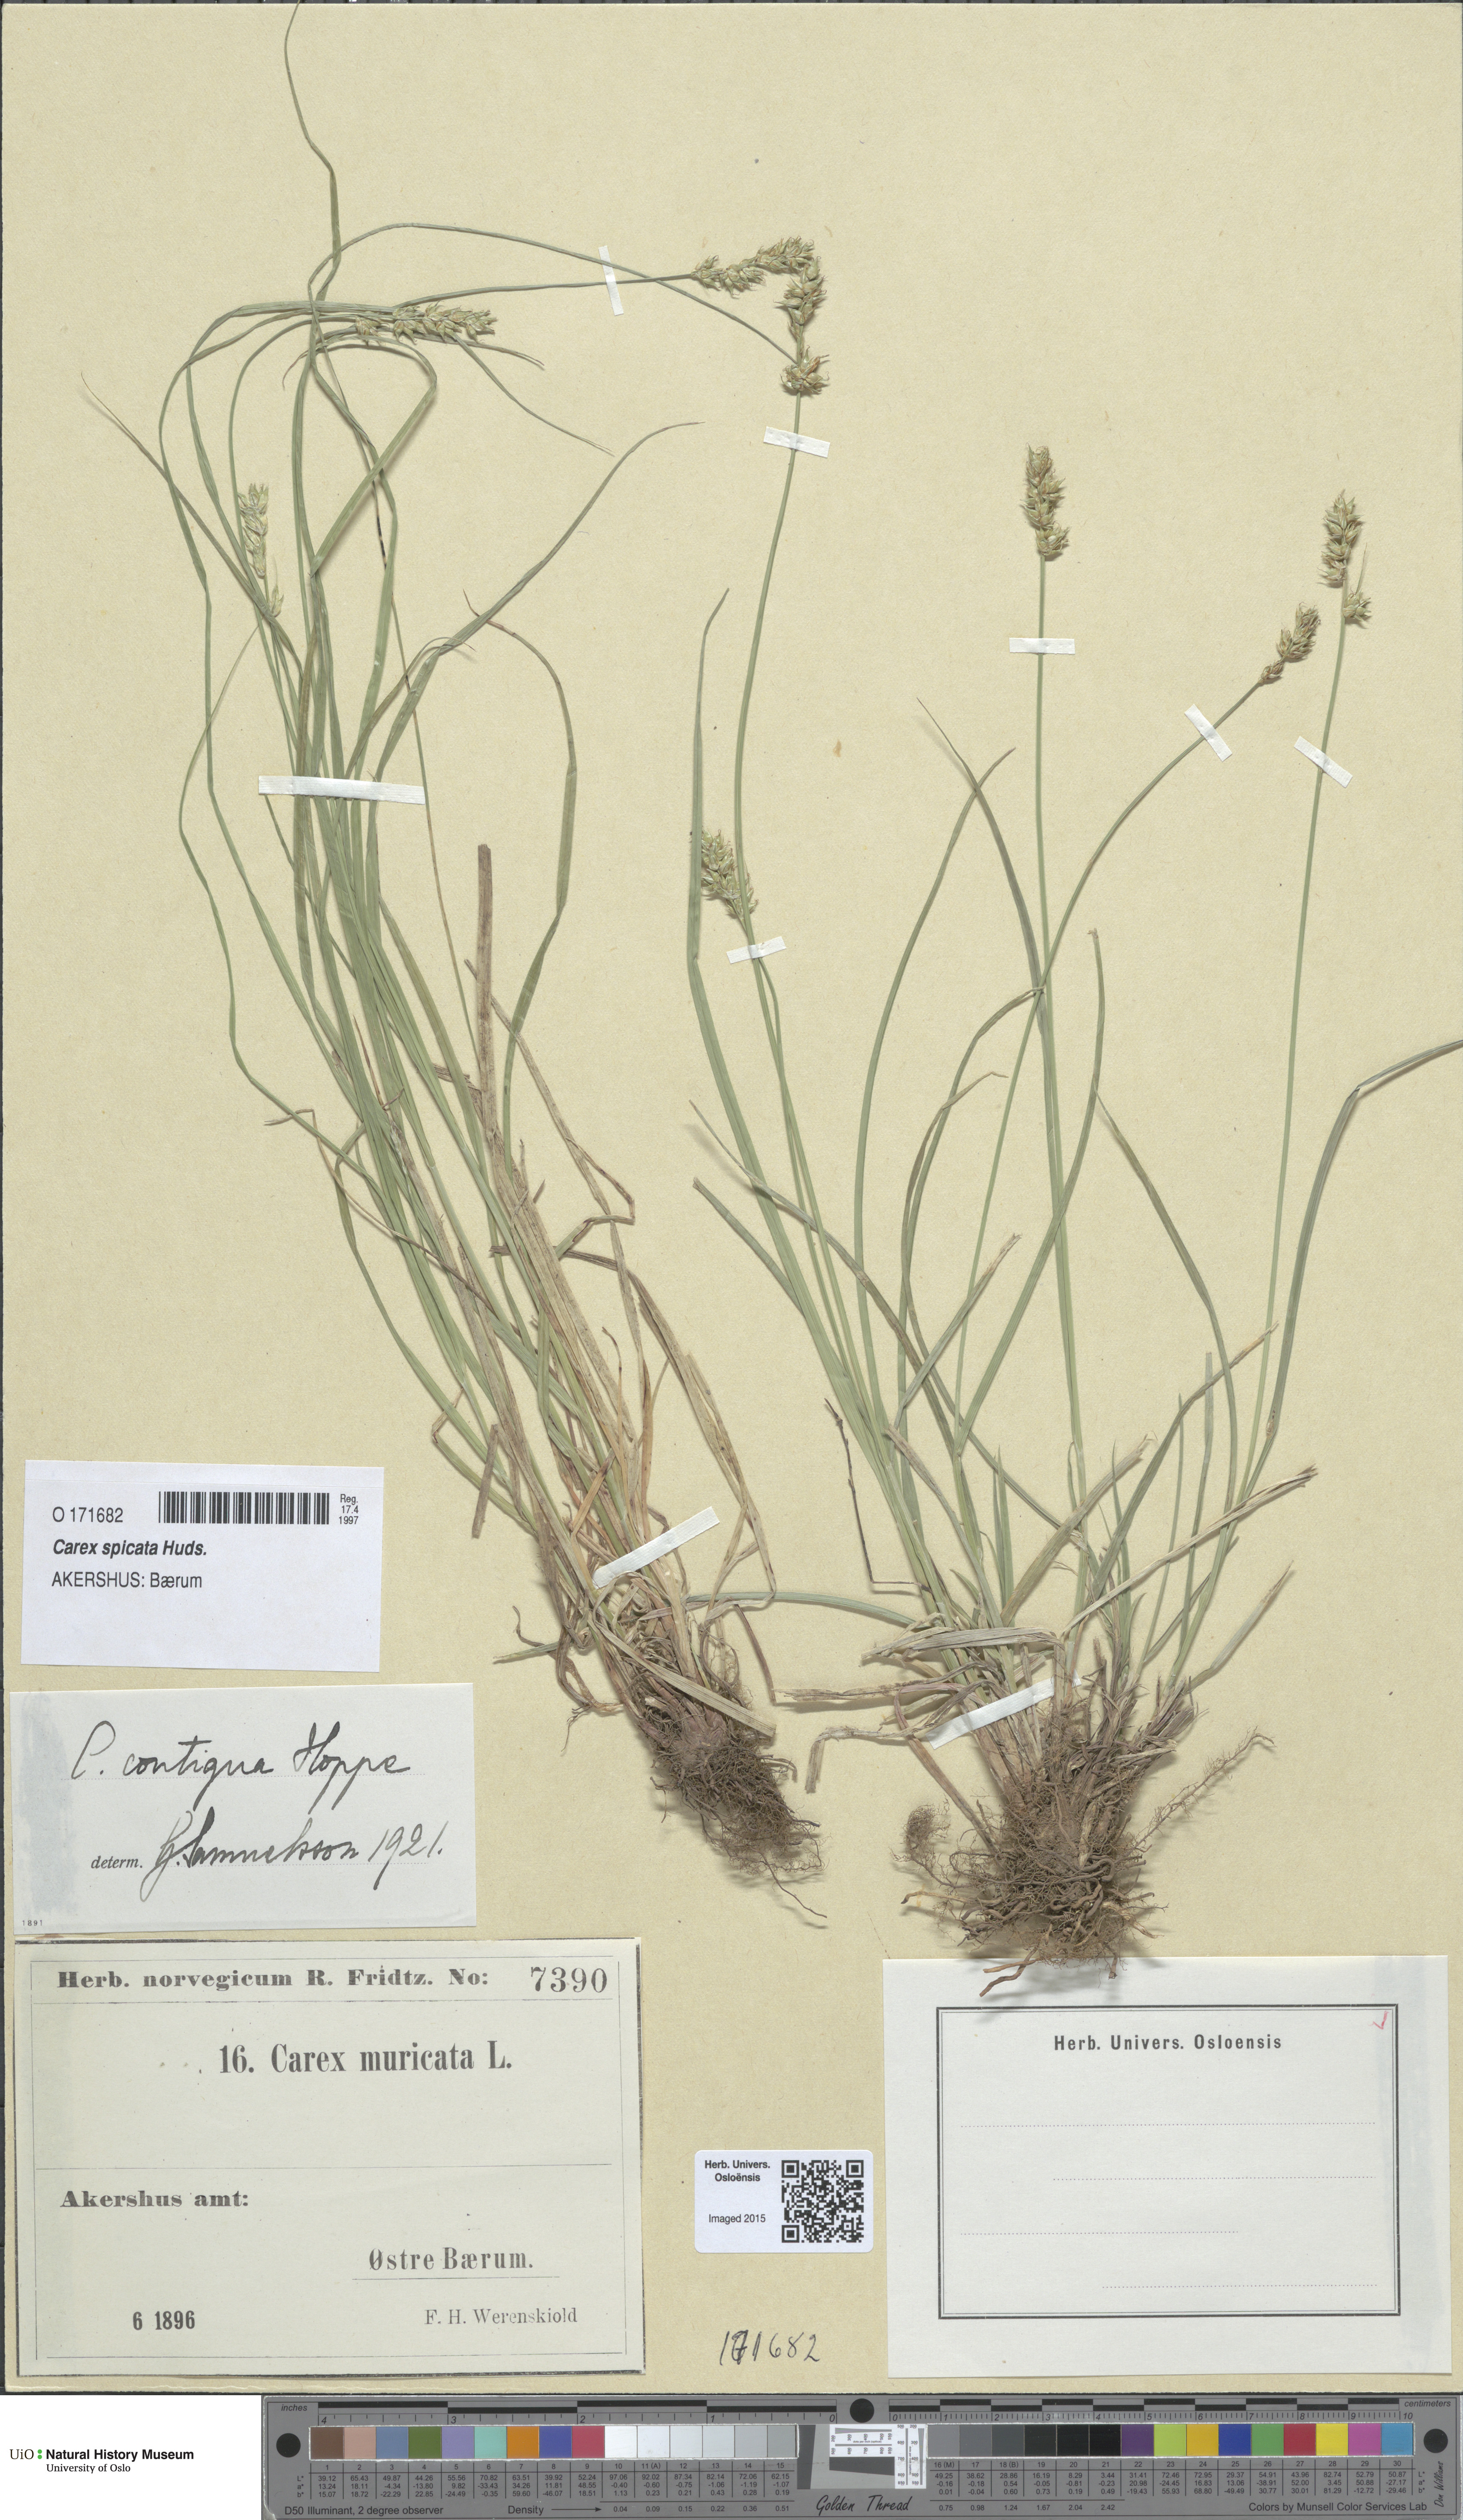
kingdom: Plantae
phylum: Tracheophyta
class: Liliopsida
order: Poales
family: Cyperaceae
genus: Carex
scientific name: Carex spicata
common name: Spiked sedge
